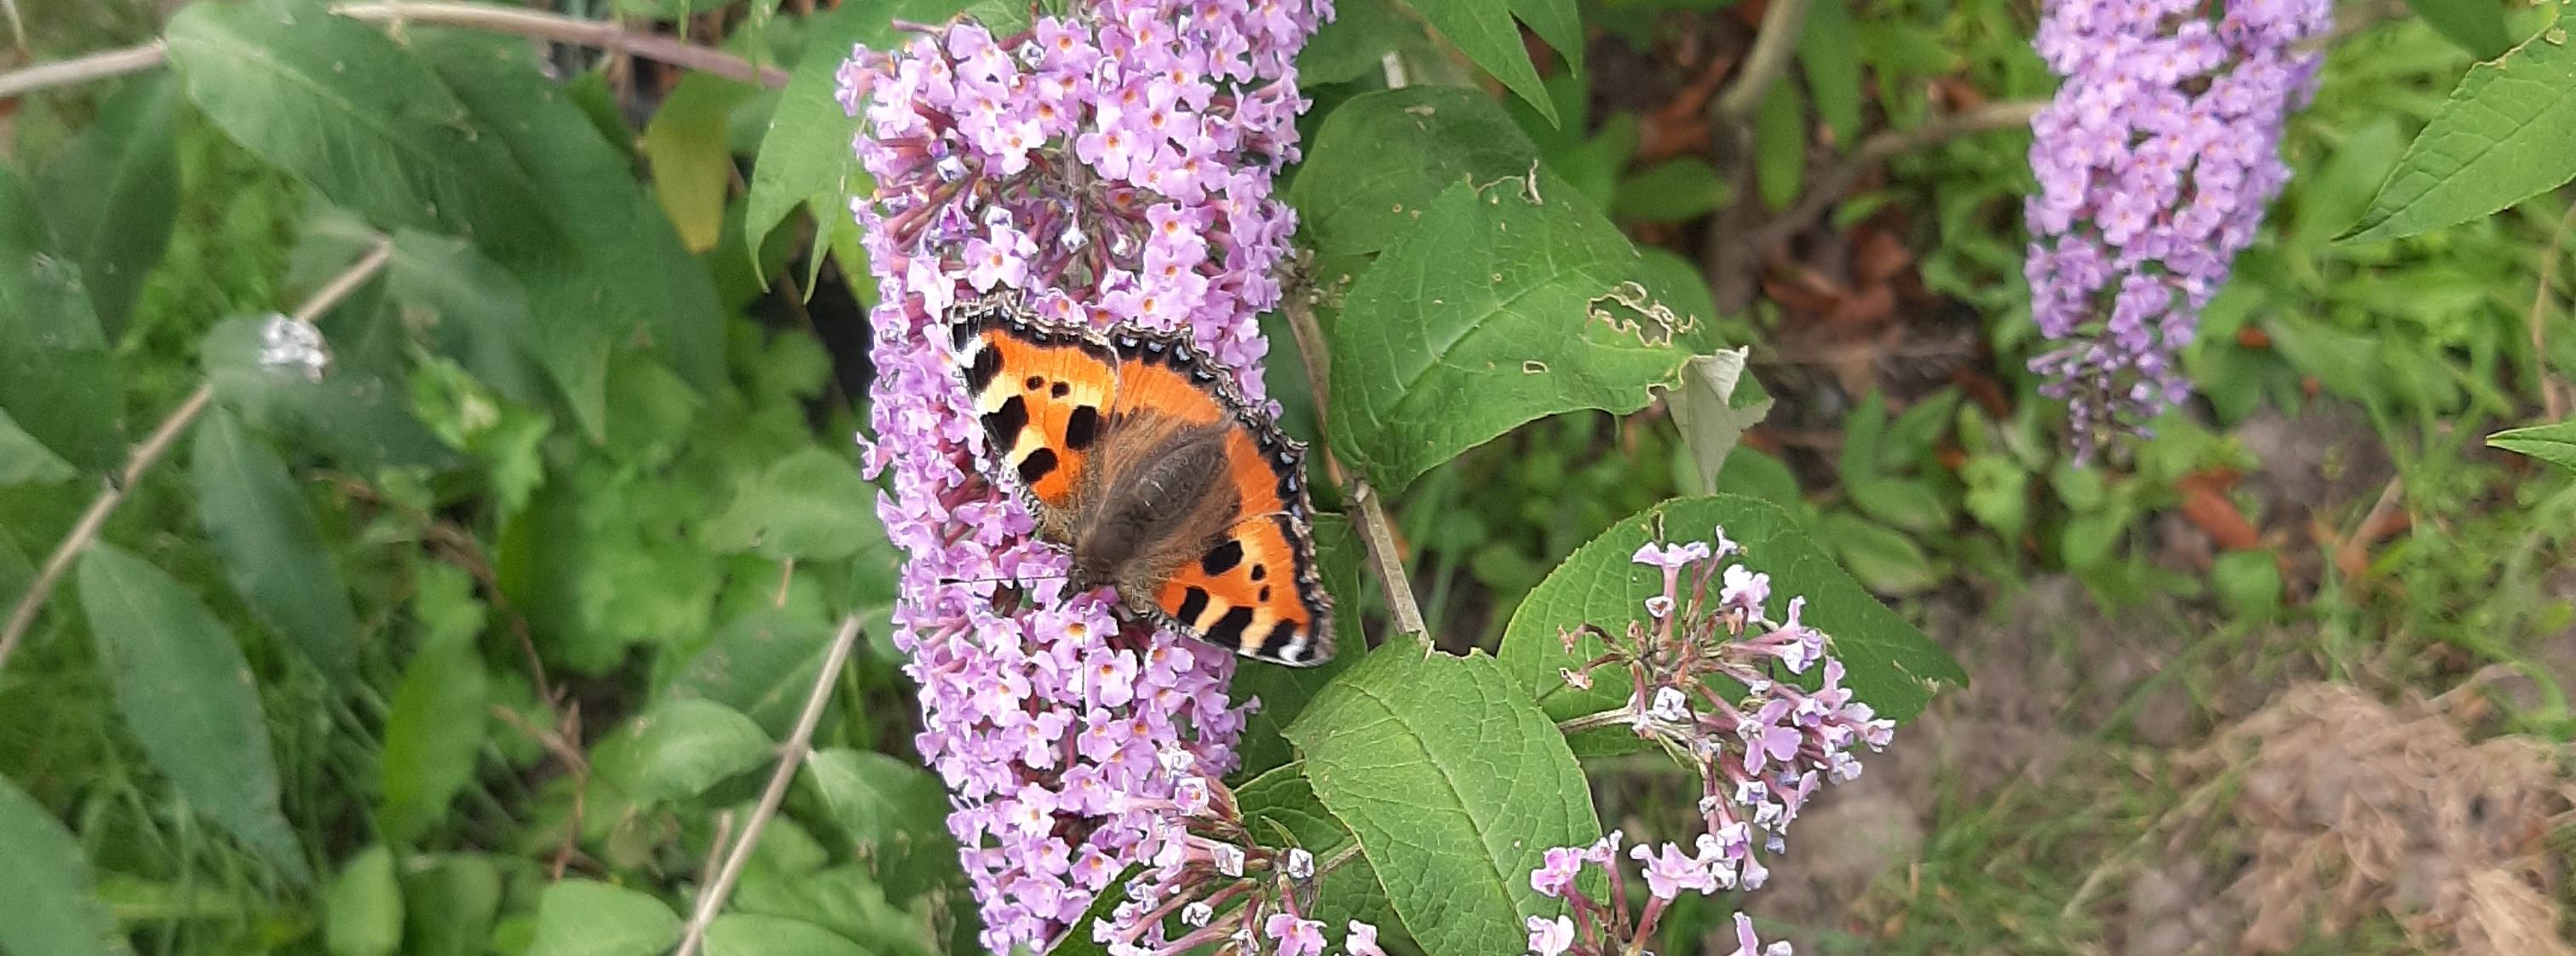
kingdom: Animalia
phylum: Arthropoda
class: Insecta
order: Lepidoptera
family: Nymphalidae
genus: Aglais
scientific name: Aglais urticae
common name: Nældens takvinge
